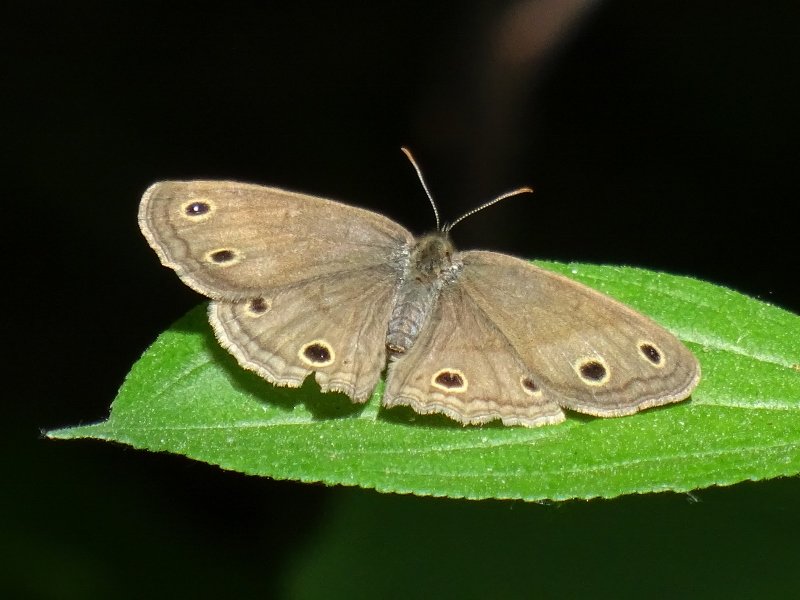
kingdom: Animalia
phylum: Arthropoda
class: Insecta
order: Lepidoptera
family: Nymphalidae
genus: Euptychia
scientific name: Euptychia cymela
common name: Little Wood Satyr
